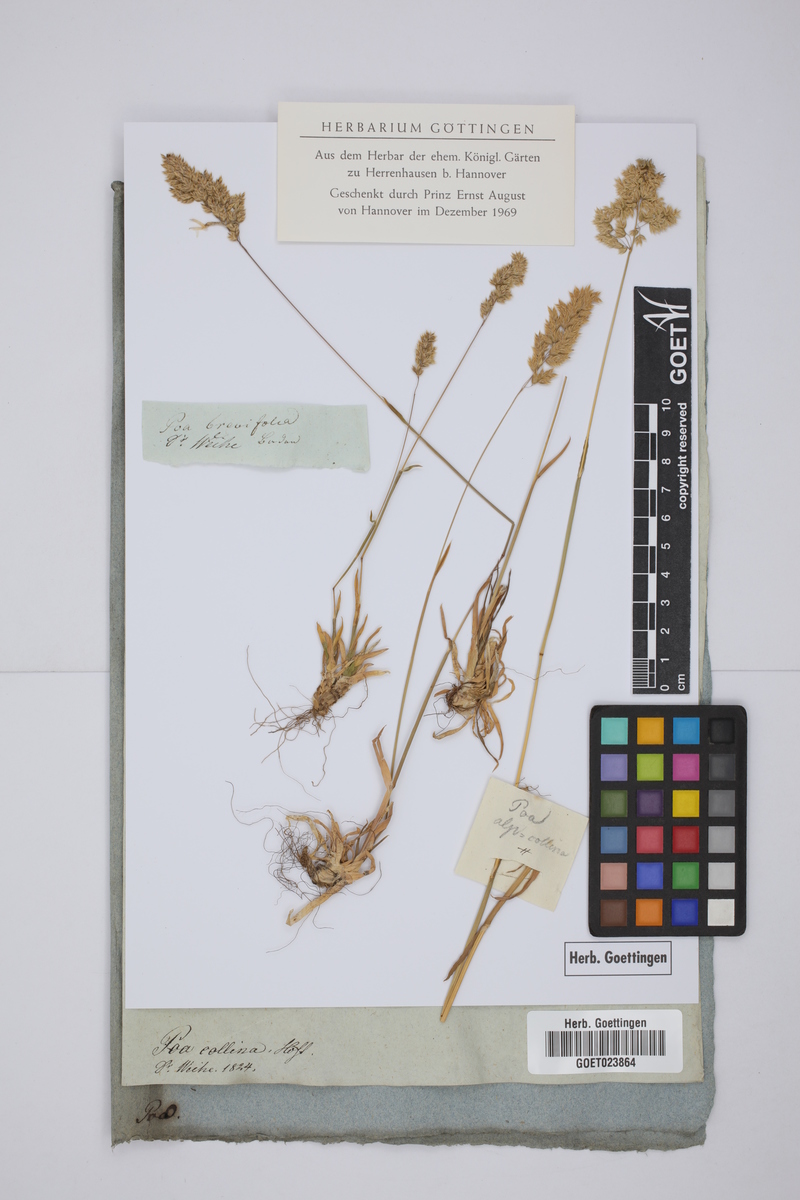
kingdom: Plantae
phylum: Tracheophyta
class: Liliopsida
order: Poales
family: Poaceae
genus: Poa
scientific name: Poa badensis
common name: Baden's bluegrass
